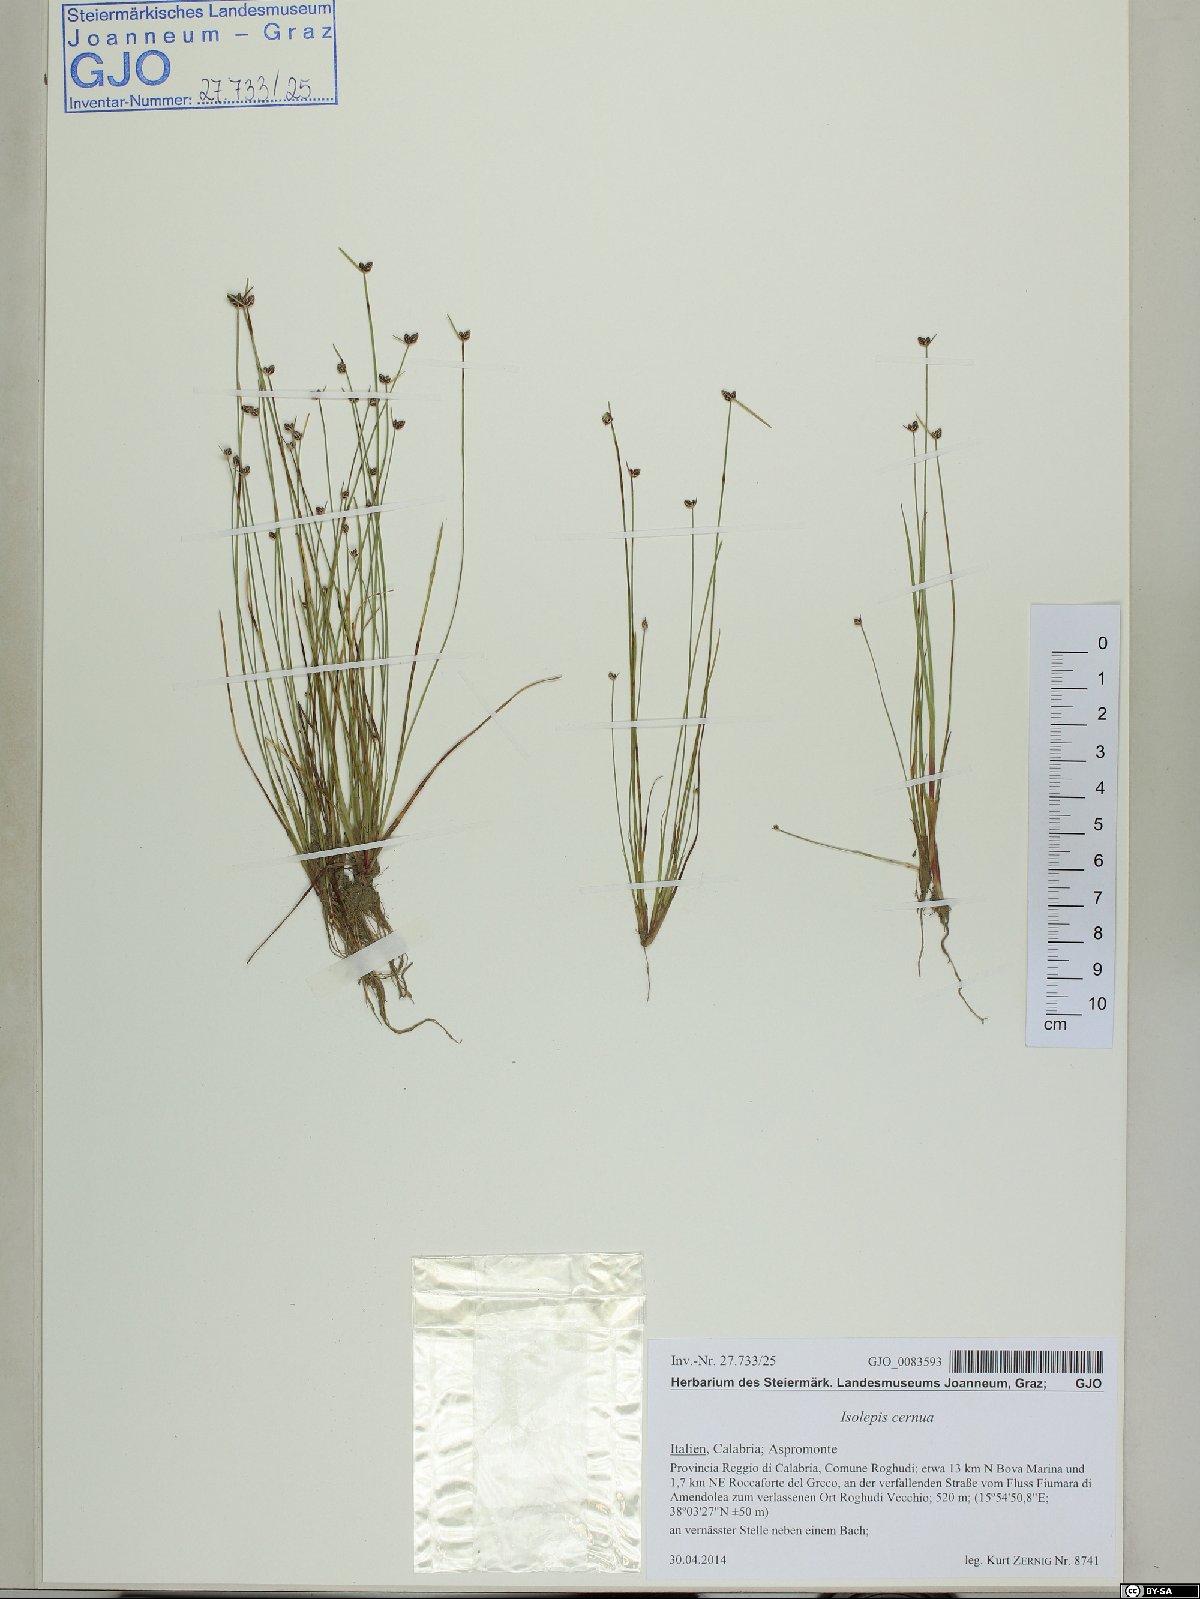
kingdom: Plantae
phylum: Tracheophyta
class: Liliopsida
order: Poales
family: Cyperaceae
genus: Isolepis
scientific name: Isolepis cernua
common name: Slender club-rush
